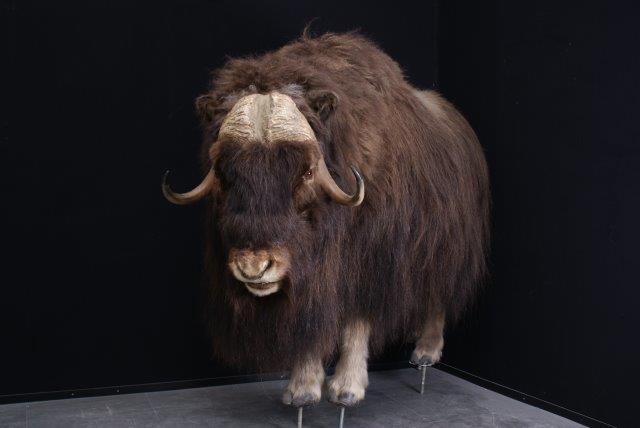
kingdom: Animalia
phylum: Chordata
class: Mammalia
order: Artiodactyla
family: Bovidae
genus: Ovibos
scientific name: Ovibos moschatus
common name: Muskox
